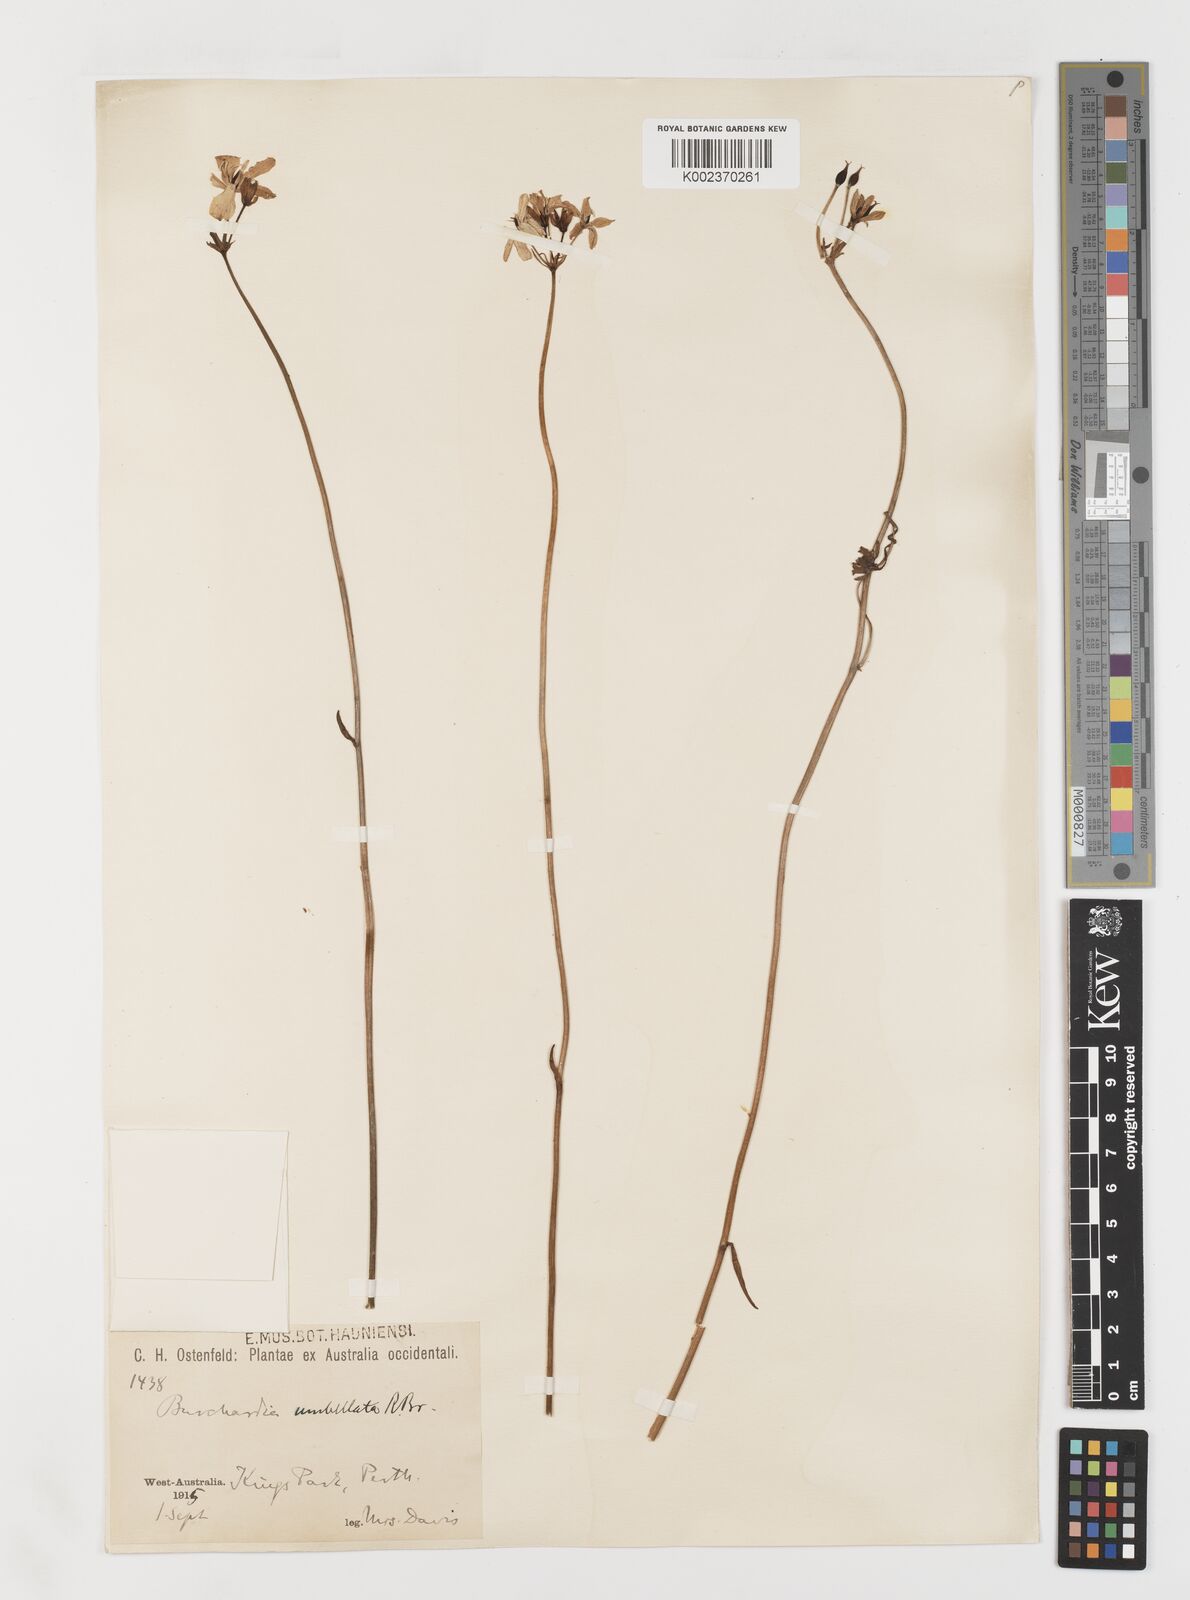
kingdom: Plantae
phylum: Tracheophyta
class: Liliopsida
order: Liliales
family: Colchicaceae
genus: Burchardia
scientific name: Burchardia umbellata
